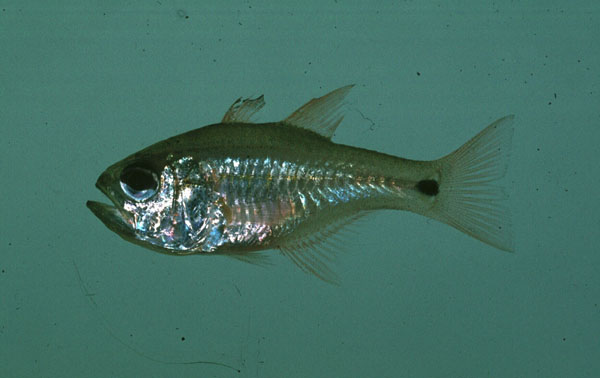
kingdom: Animalia
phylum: Chordata
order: Perciformes
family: Apogonidae
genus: Taeniamia
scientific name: Taeniamia mozambiquensis
